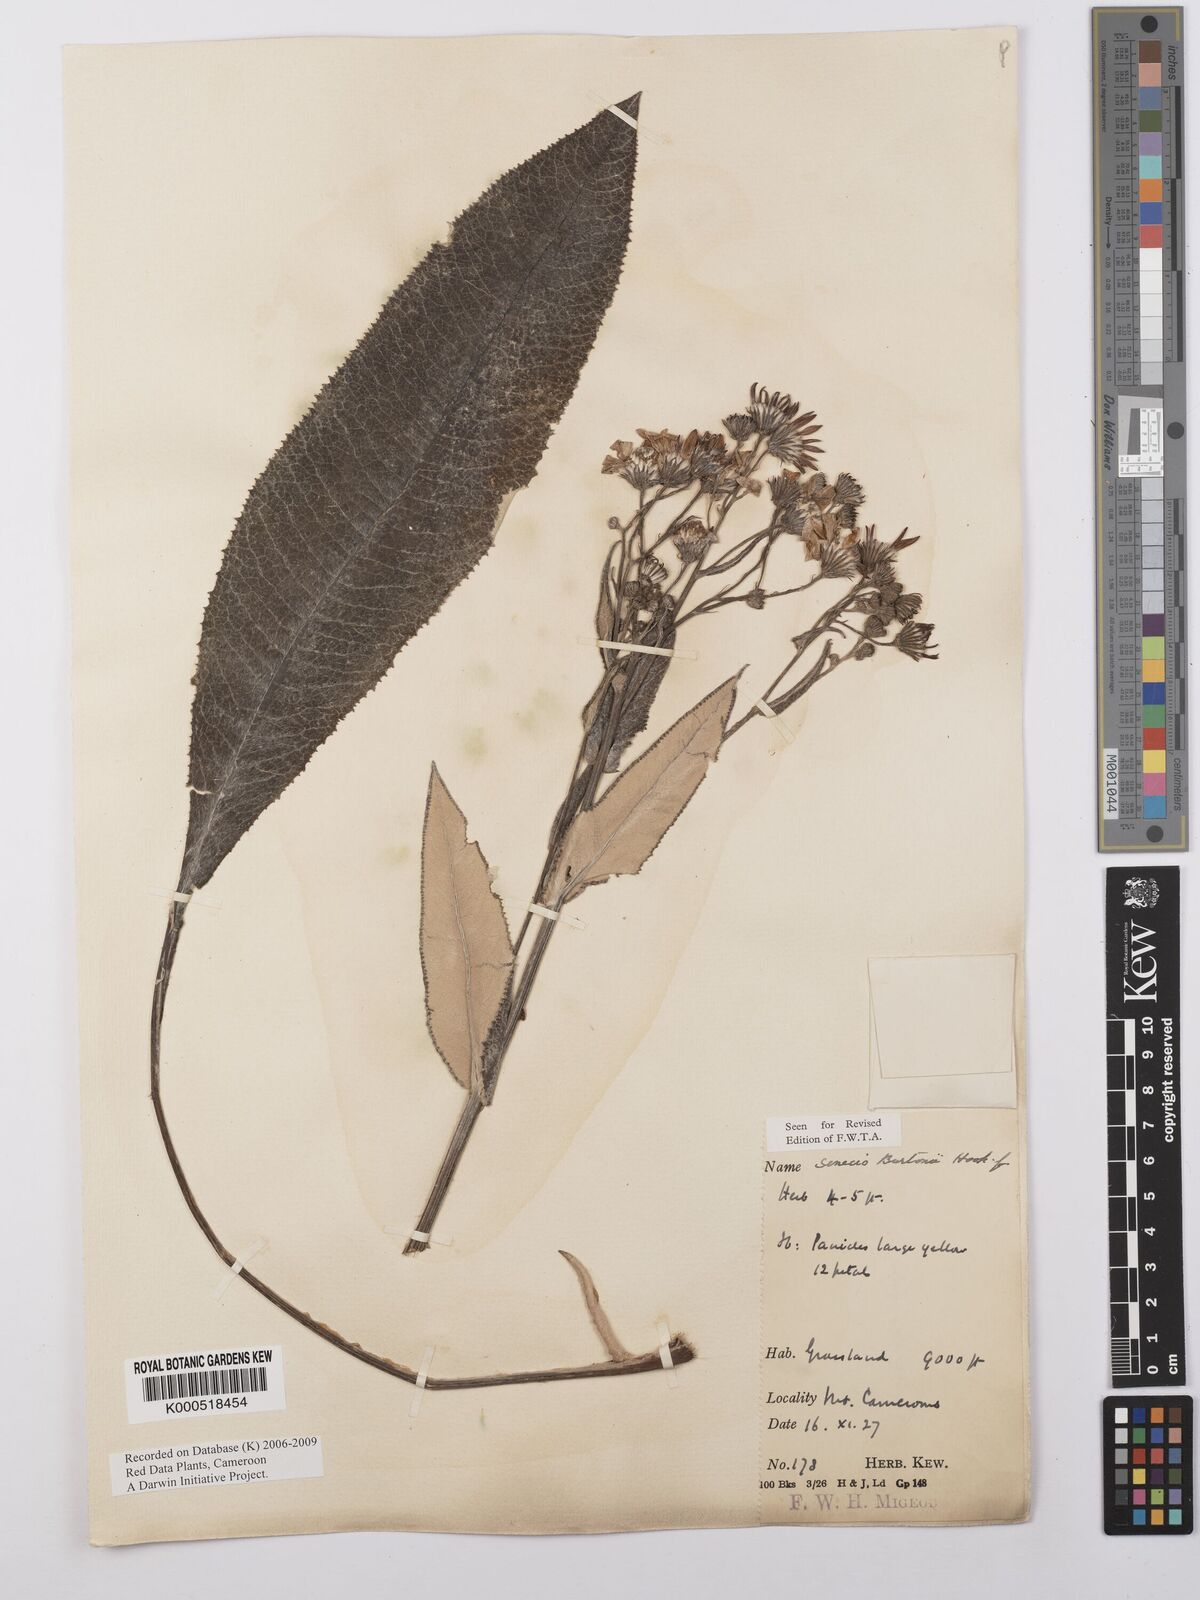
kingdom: Plantae
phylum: Tracheophyta
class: Magnoliopsida
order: Asterales
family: Asteraceae
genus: Senecio
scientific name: Senecio burtonii
